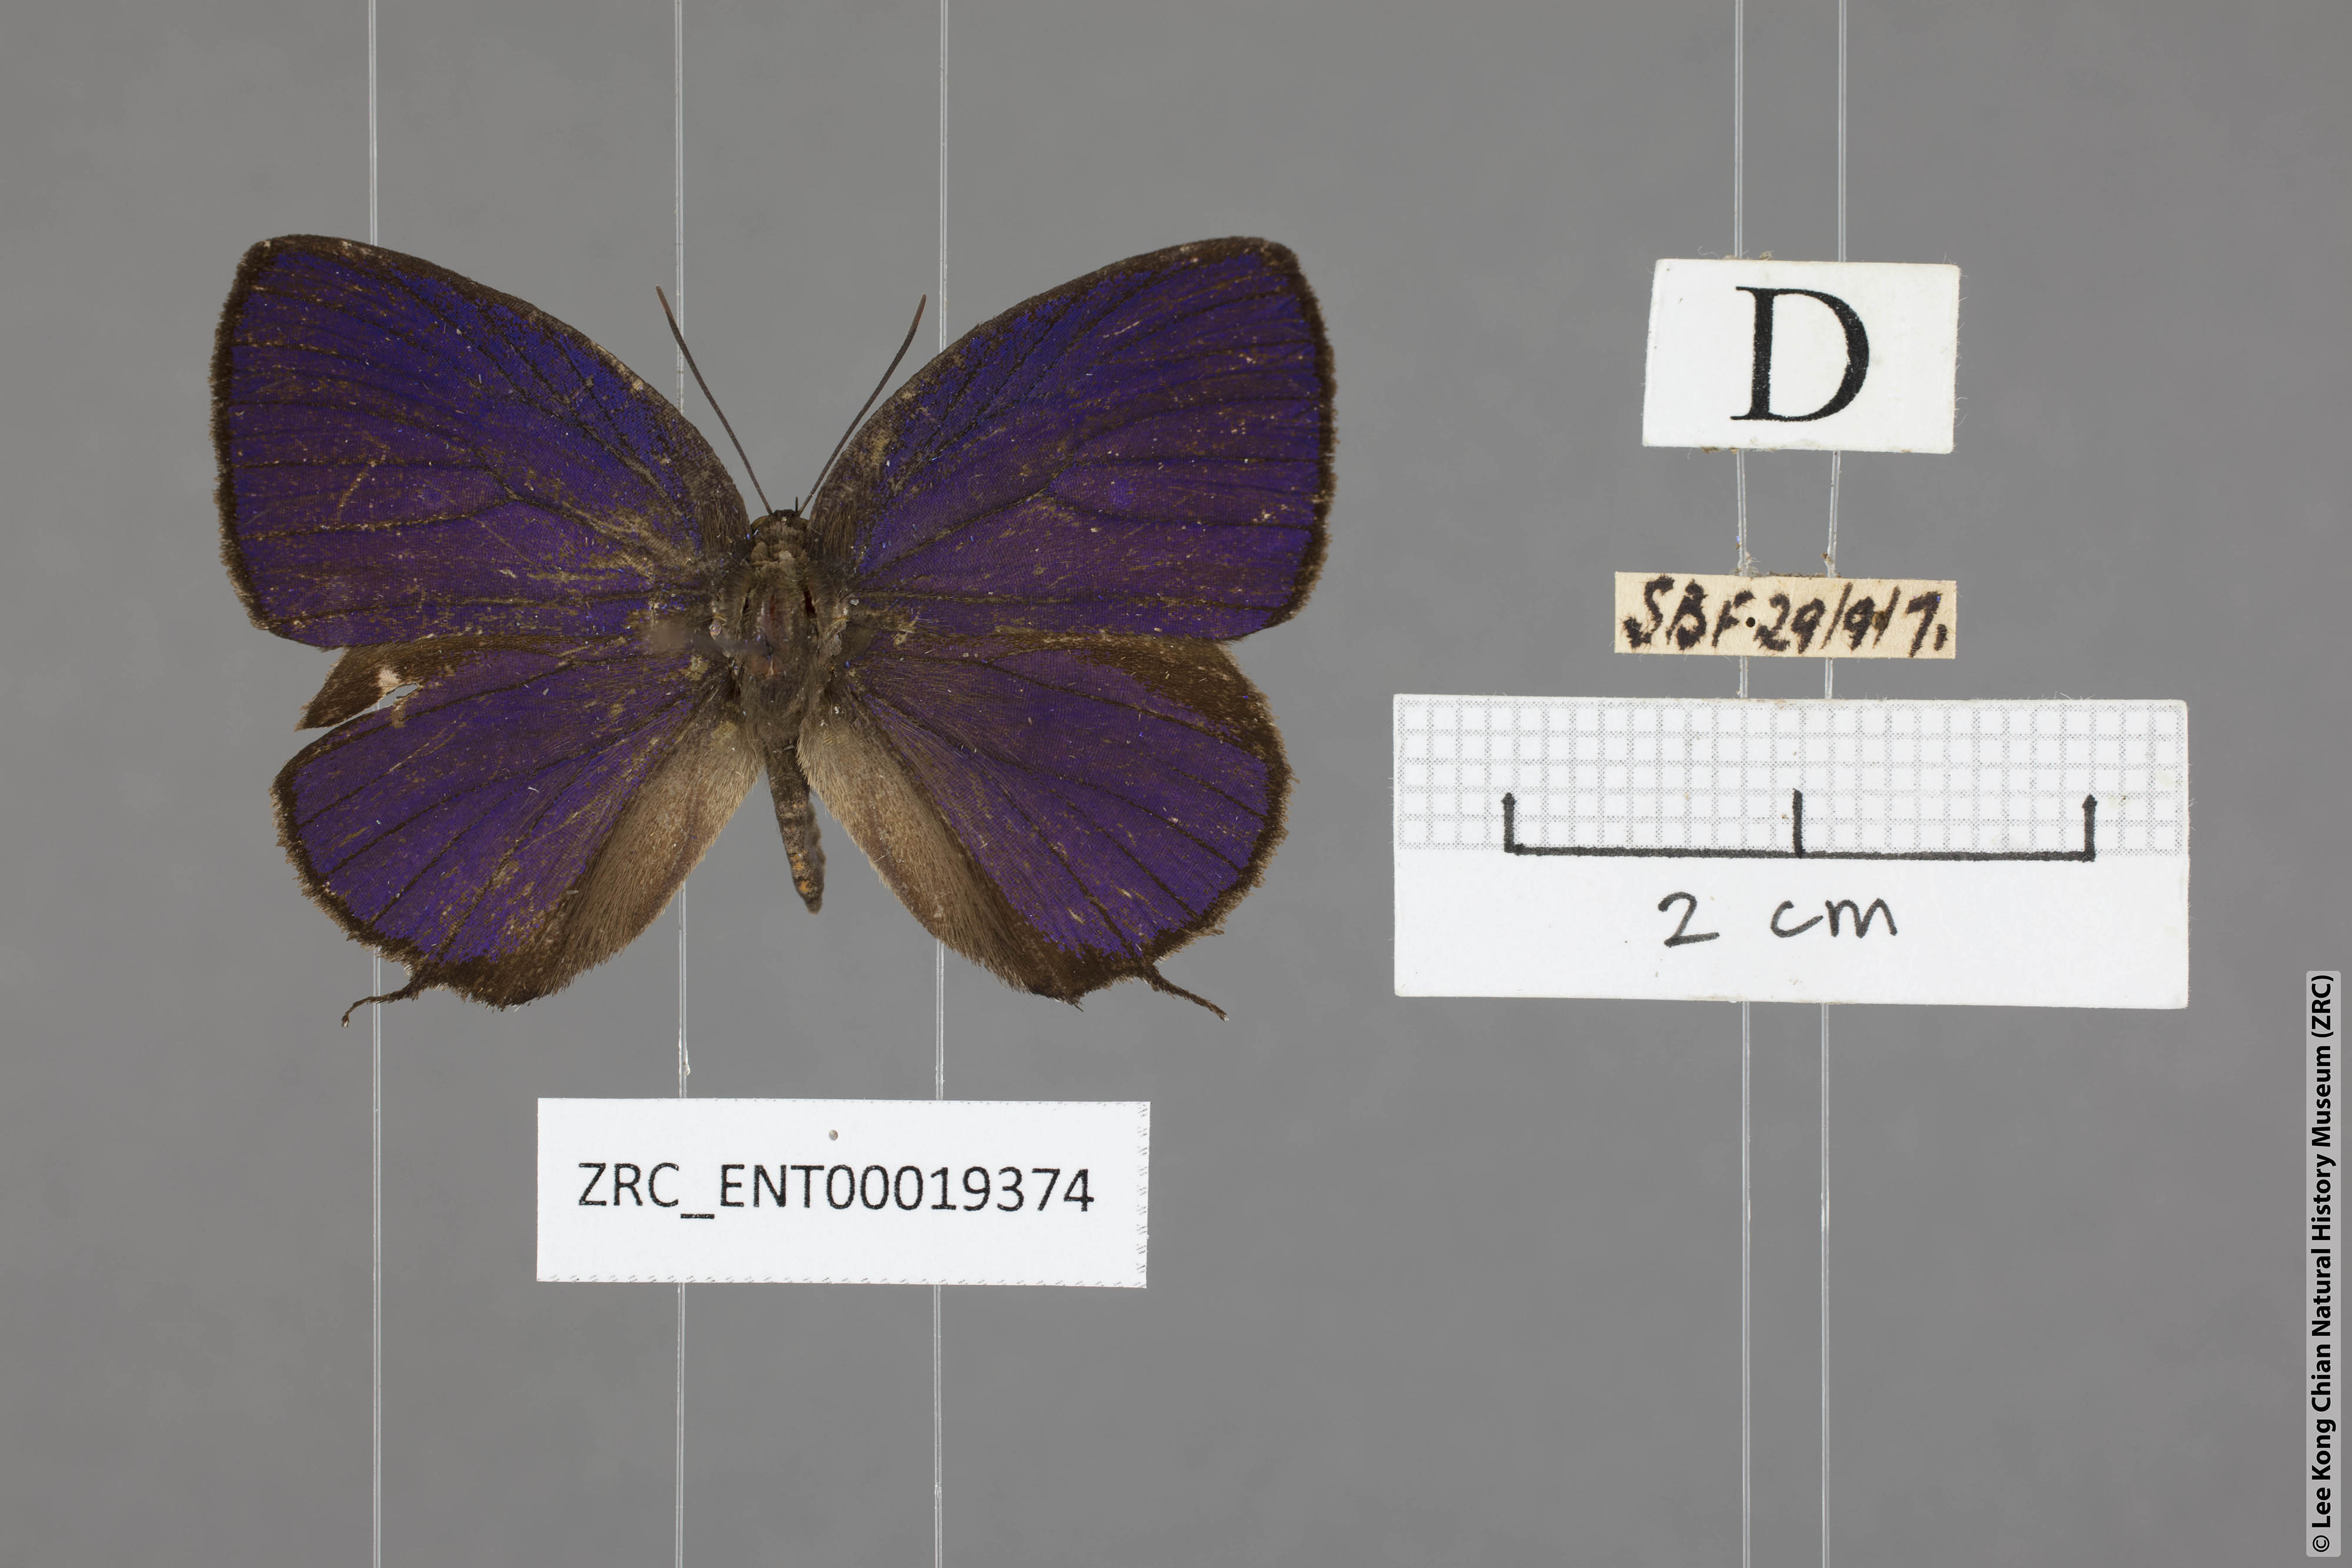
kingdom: Animalia
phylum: Arthropoda
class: Insecta
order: Lepidoptera
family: Lycaenidae
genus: Arhopala
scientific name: Arhopala delta
